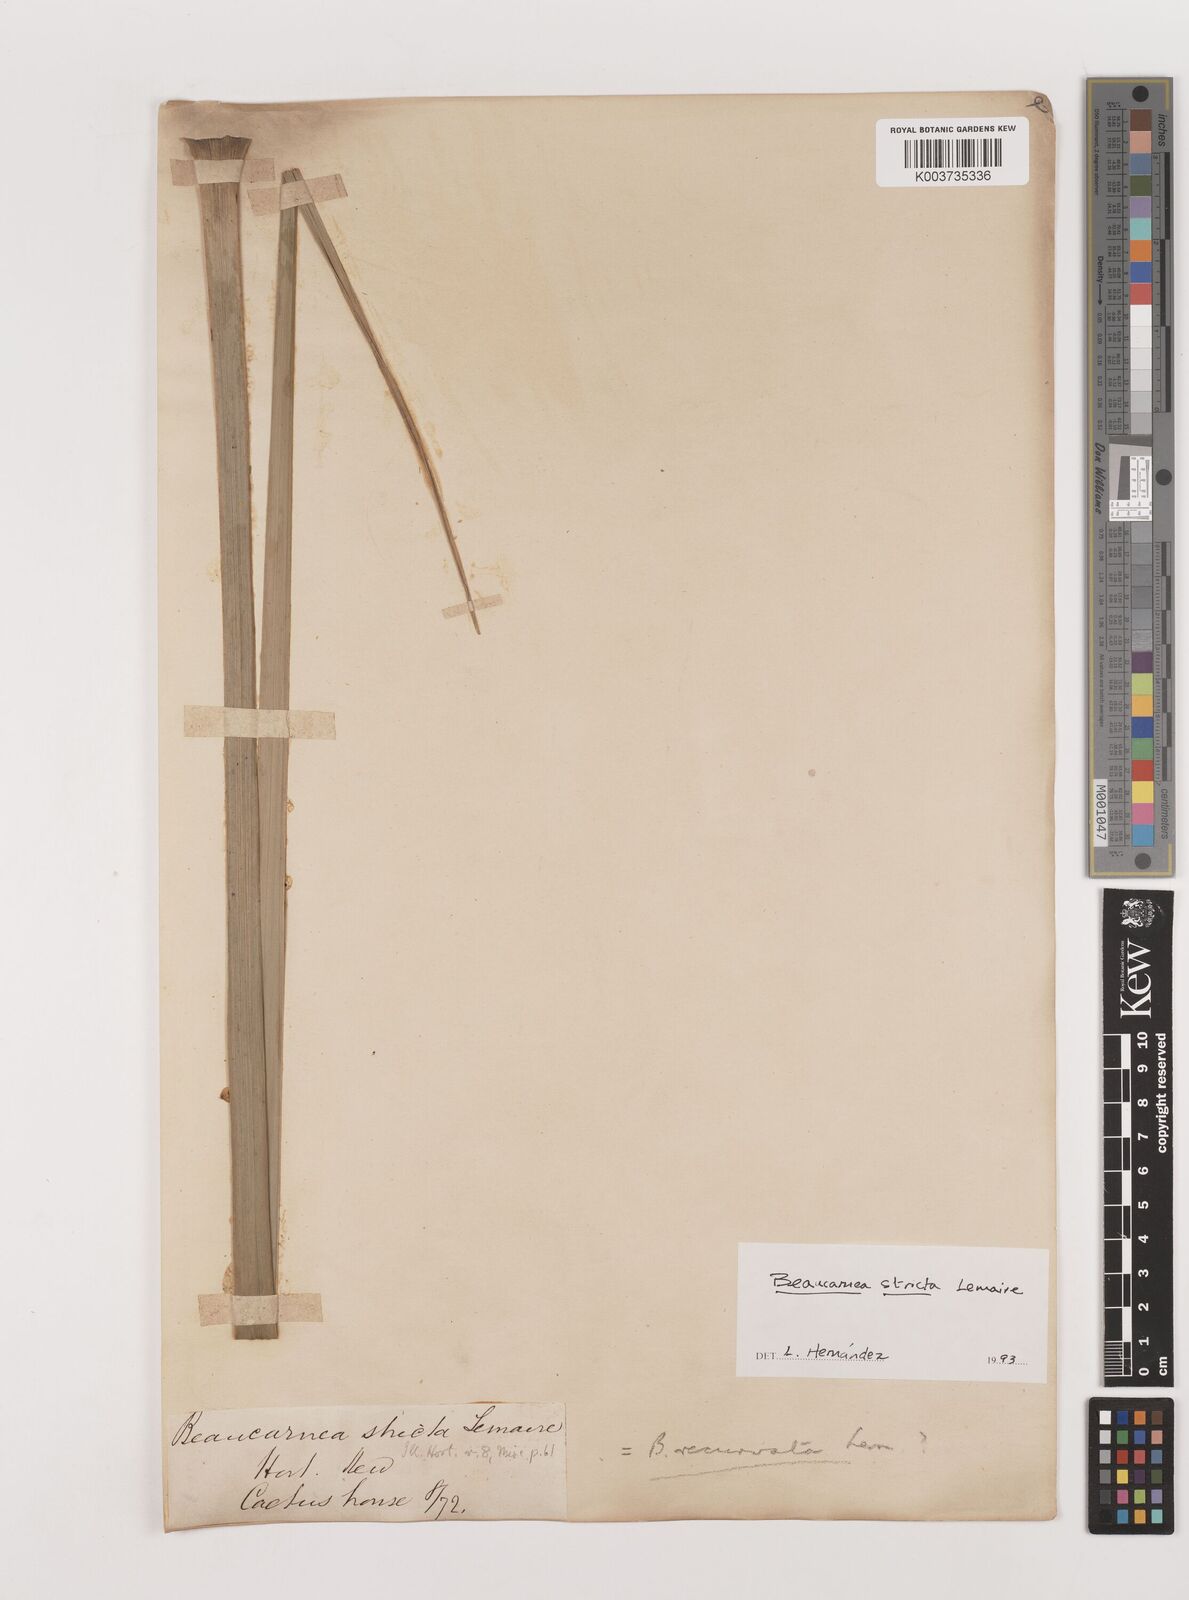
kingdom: Plantae
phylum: Tracheophyta
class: Liliopsida
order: Asparagales
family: Asparagaceae
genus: Beaucarnea
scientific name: Beaucarnea stricta
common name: Bottle palm
